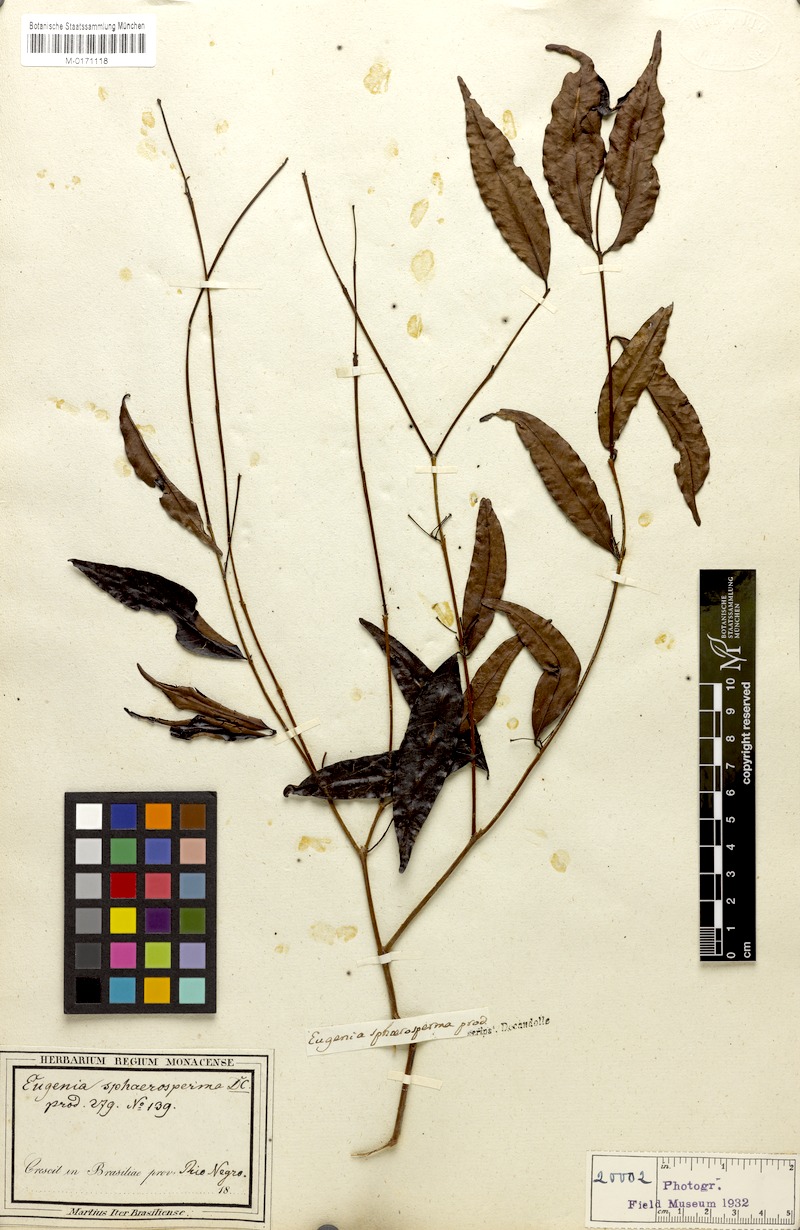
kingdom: Plantae
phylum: Tracheophyta
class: Magnoliopsida
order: Myrtales
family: Myrtaceae
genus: Eugenia
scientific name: Eugenia egensis
